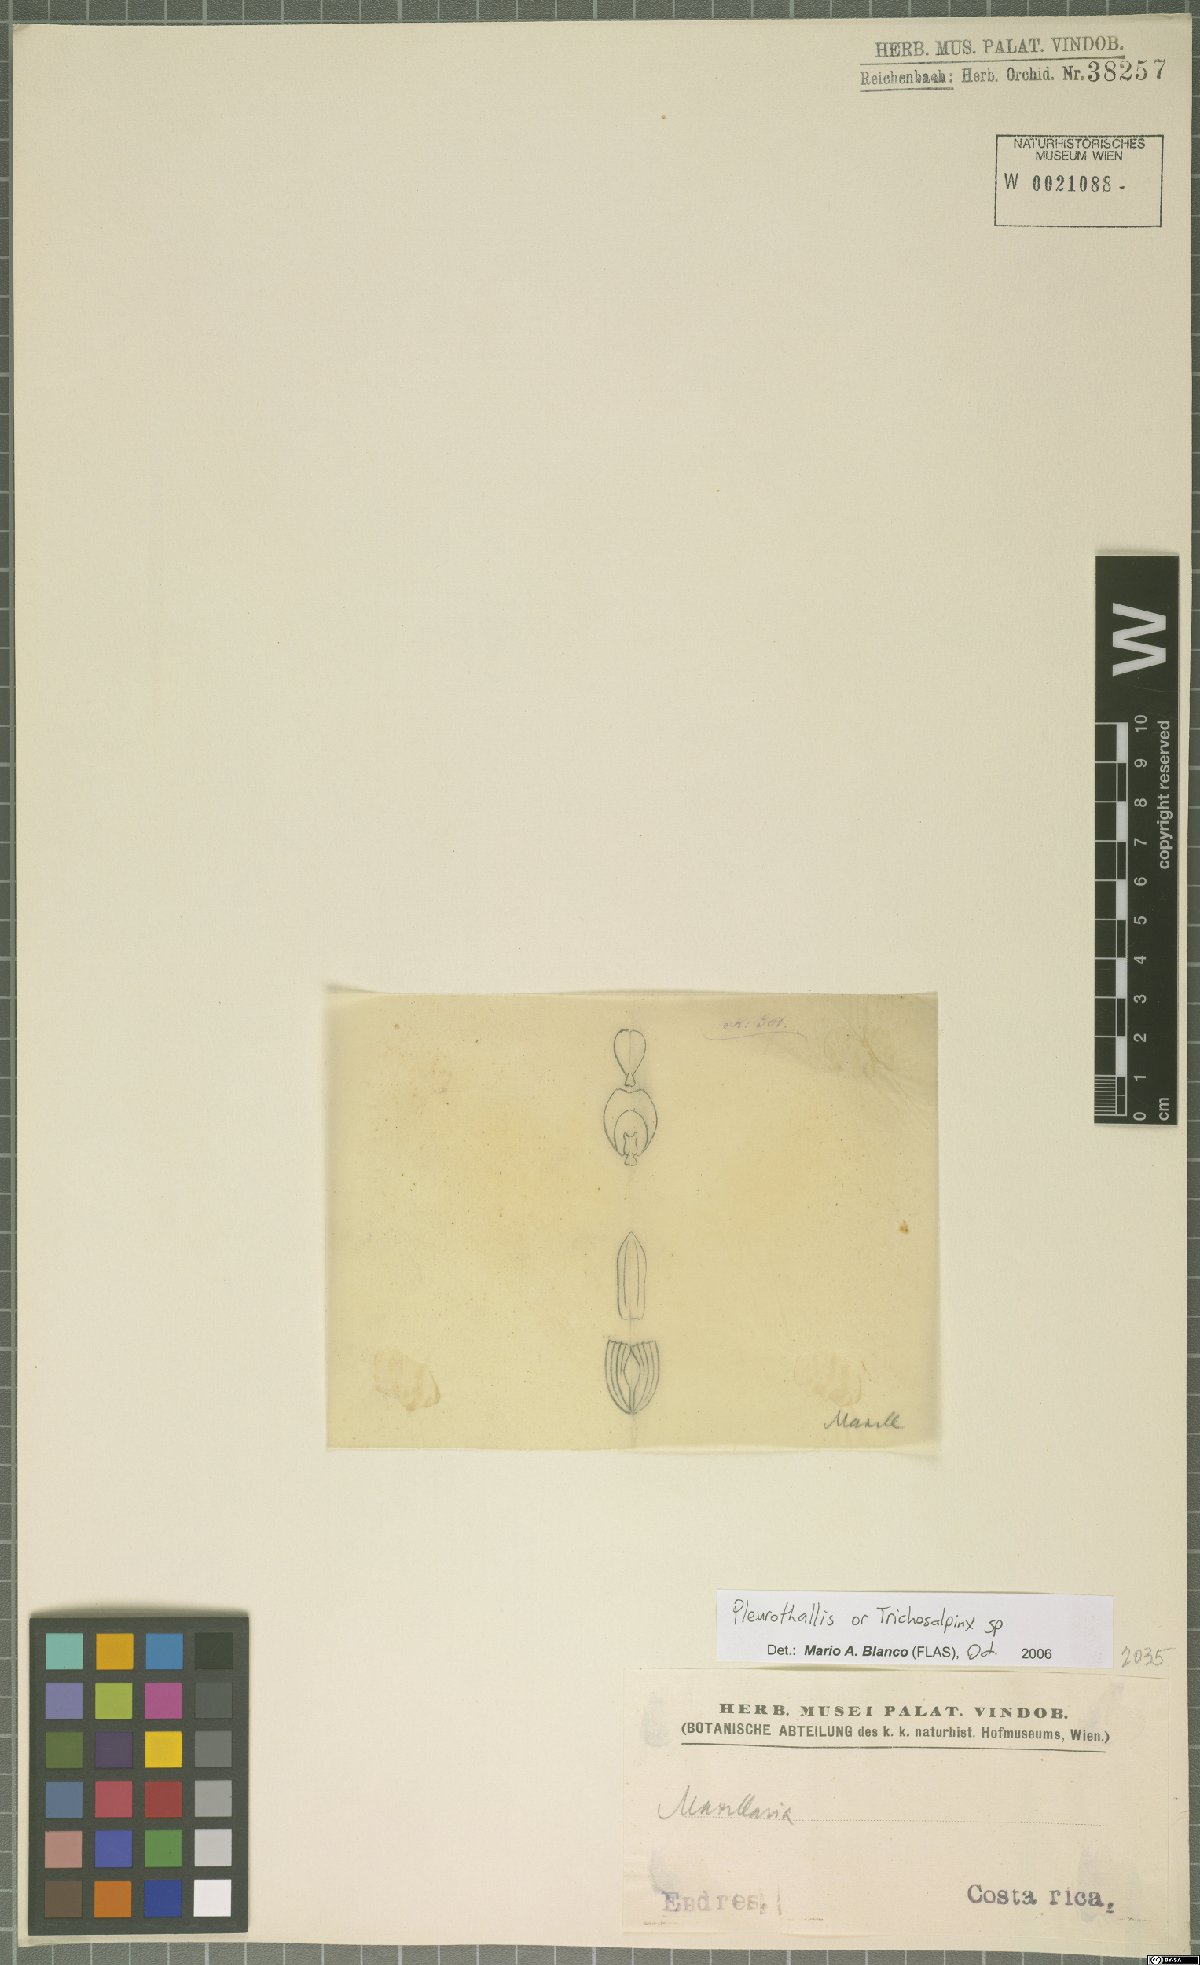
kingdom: Plantae
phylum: Tracheophyta
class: Liliopsida
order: Asparagales
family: Orchidaceae
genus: Pleurothallis
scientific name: Pleurothallis
